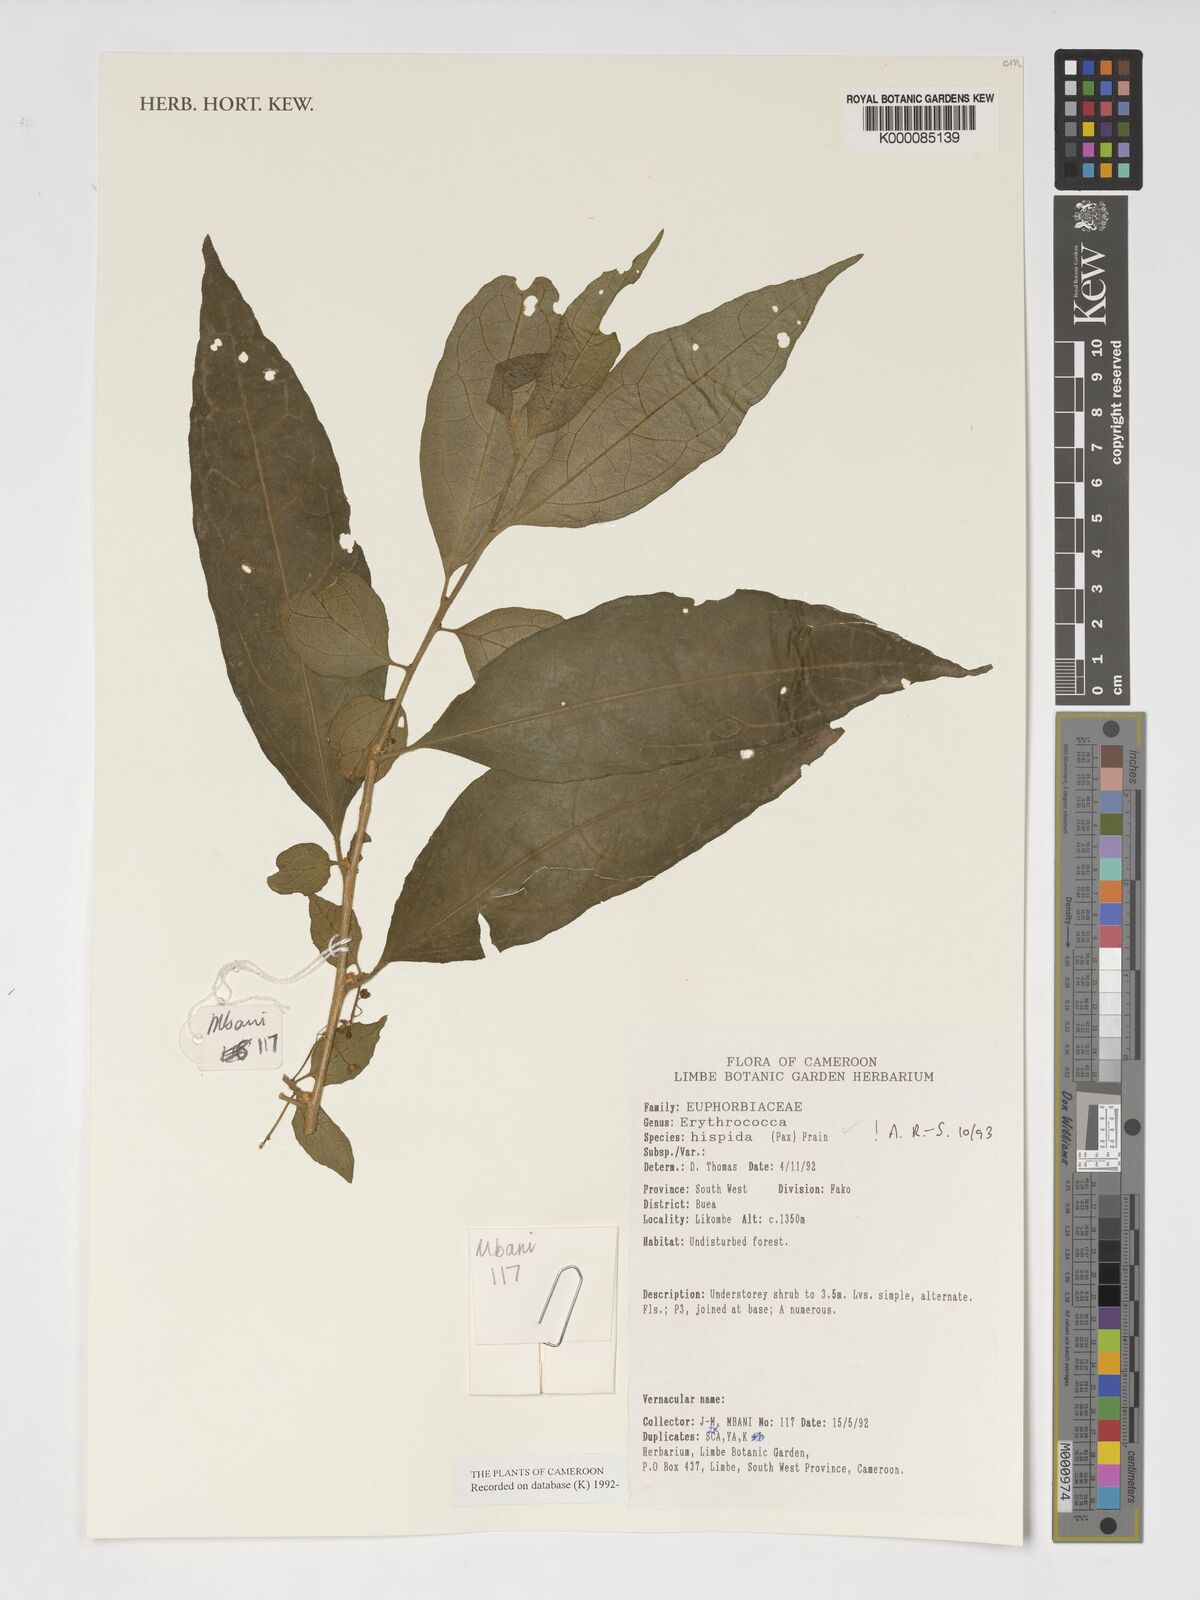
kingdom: Plantae
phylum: Tracheophyta
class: Magnoliopsida
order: Malpighiales
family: Euphorbiaceae
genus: Erythrococca
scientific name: Erythrococca hispida
